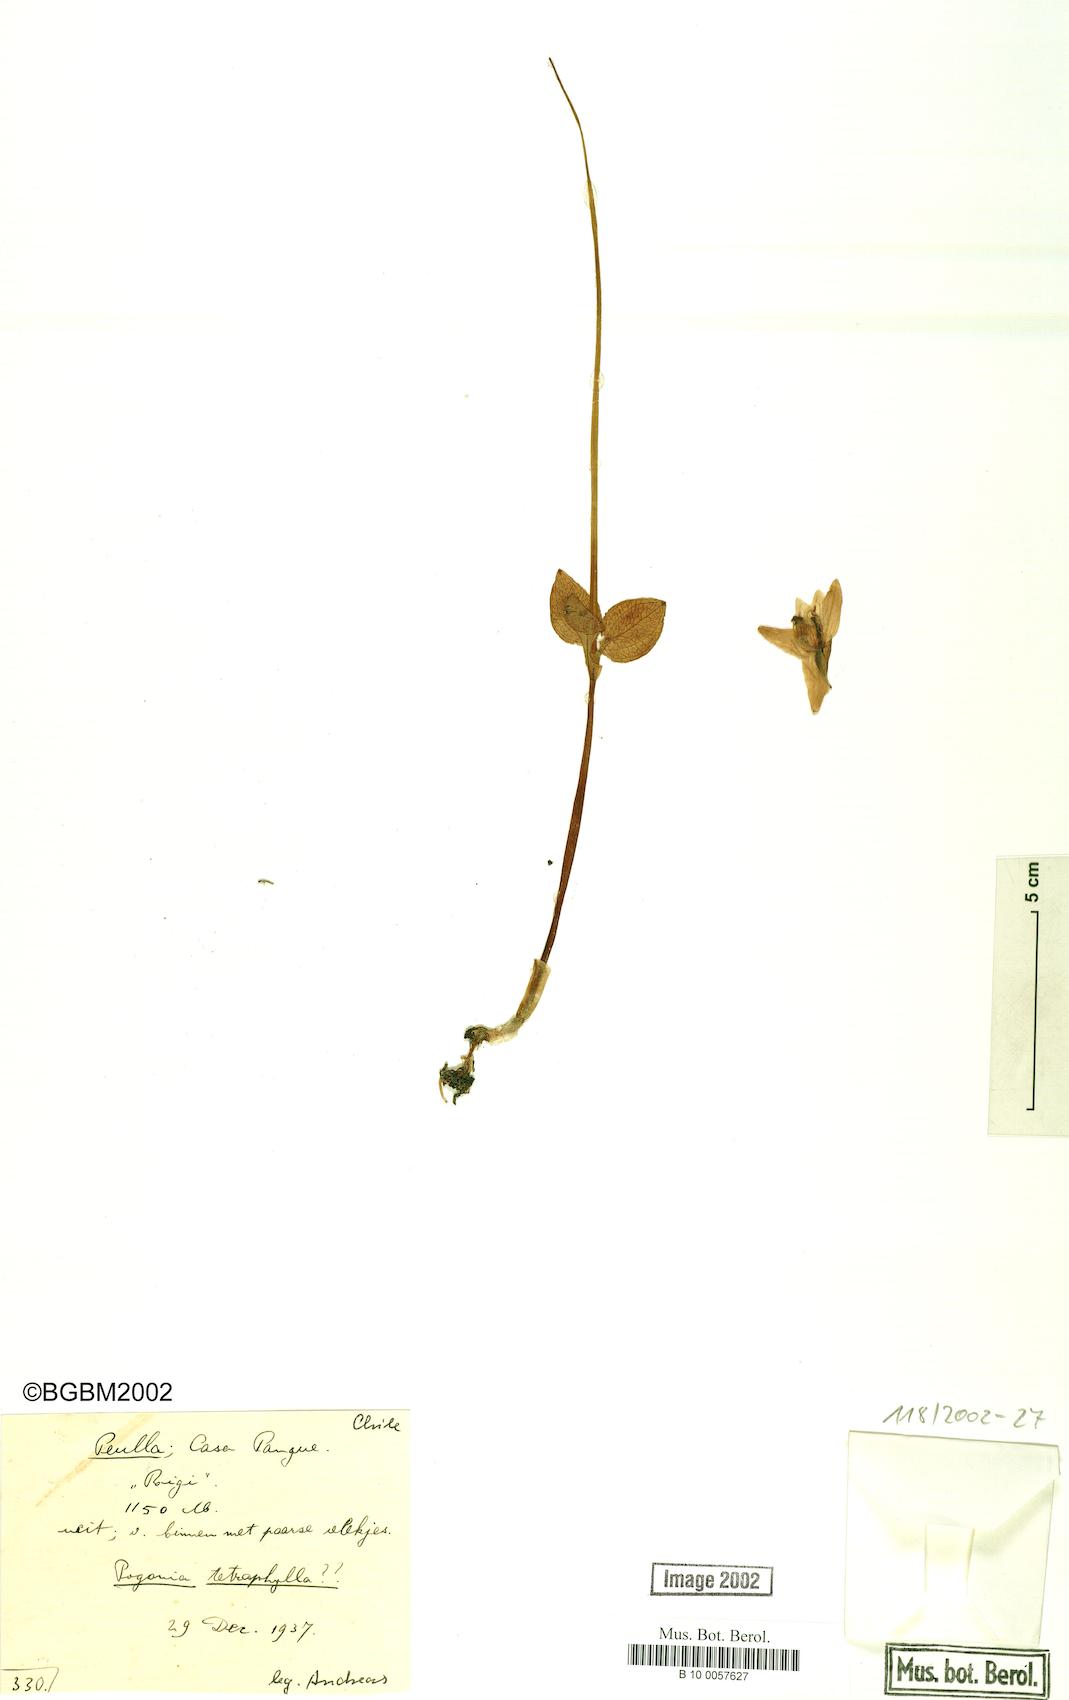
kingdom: Plantae
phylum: Tracheophyta
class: Liliopsida
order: Asparagales
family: Orchidaceae
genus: Codonorchis
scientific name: Codonorchis lessonii
